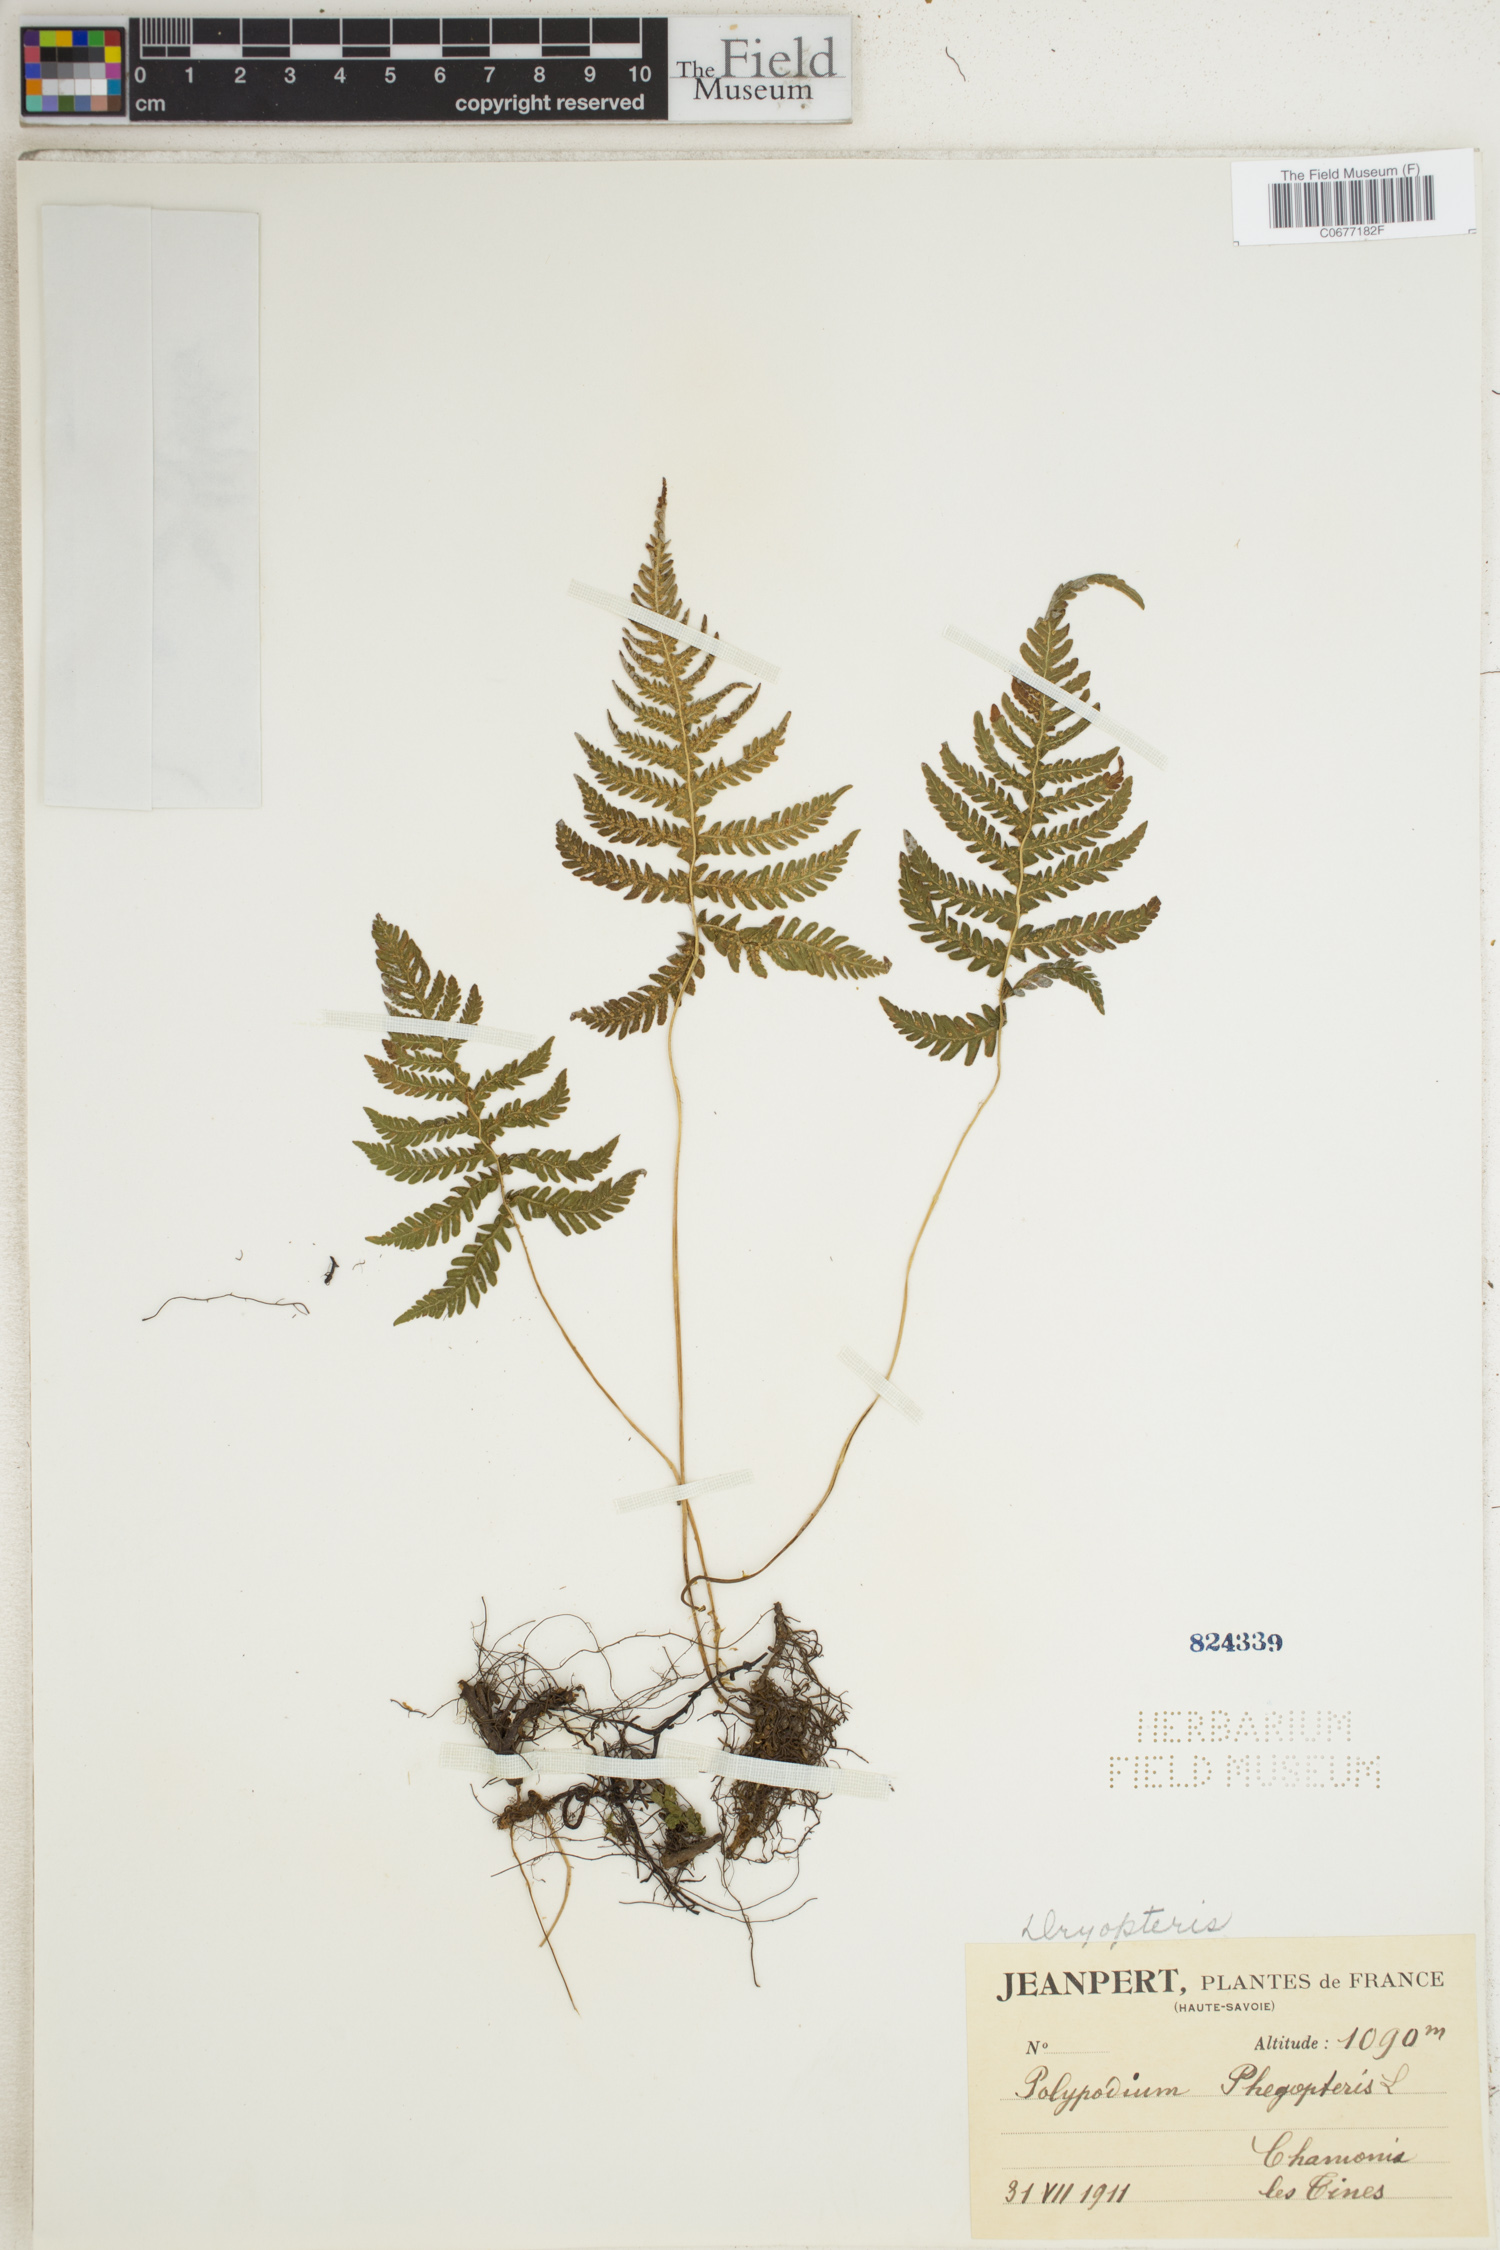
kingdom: Plantae
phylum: Tracheophyta
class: Polypodiopsida
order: Polypodiales
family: Thelypteridaceae
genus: Phegopteris
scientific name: Phegopteris connectilis
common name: Beech fern
